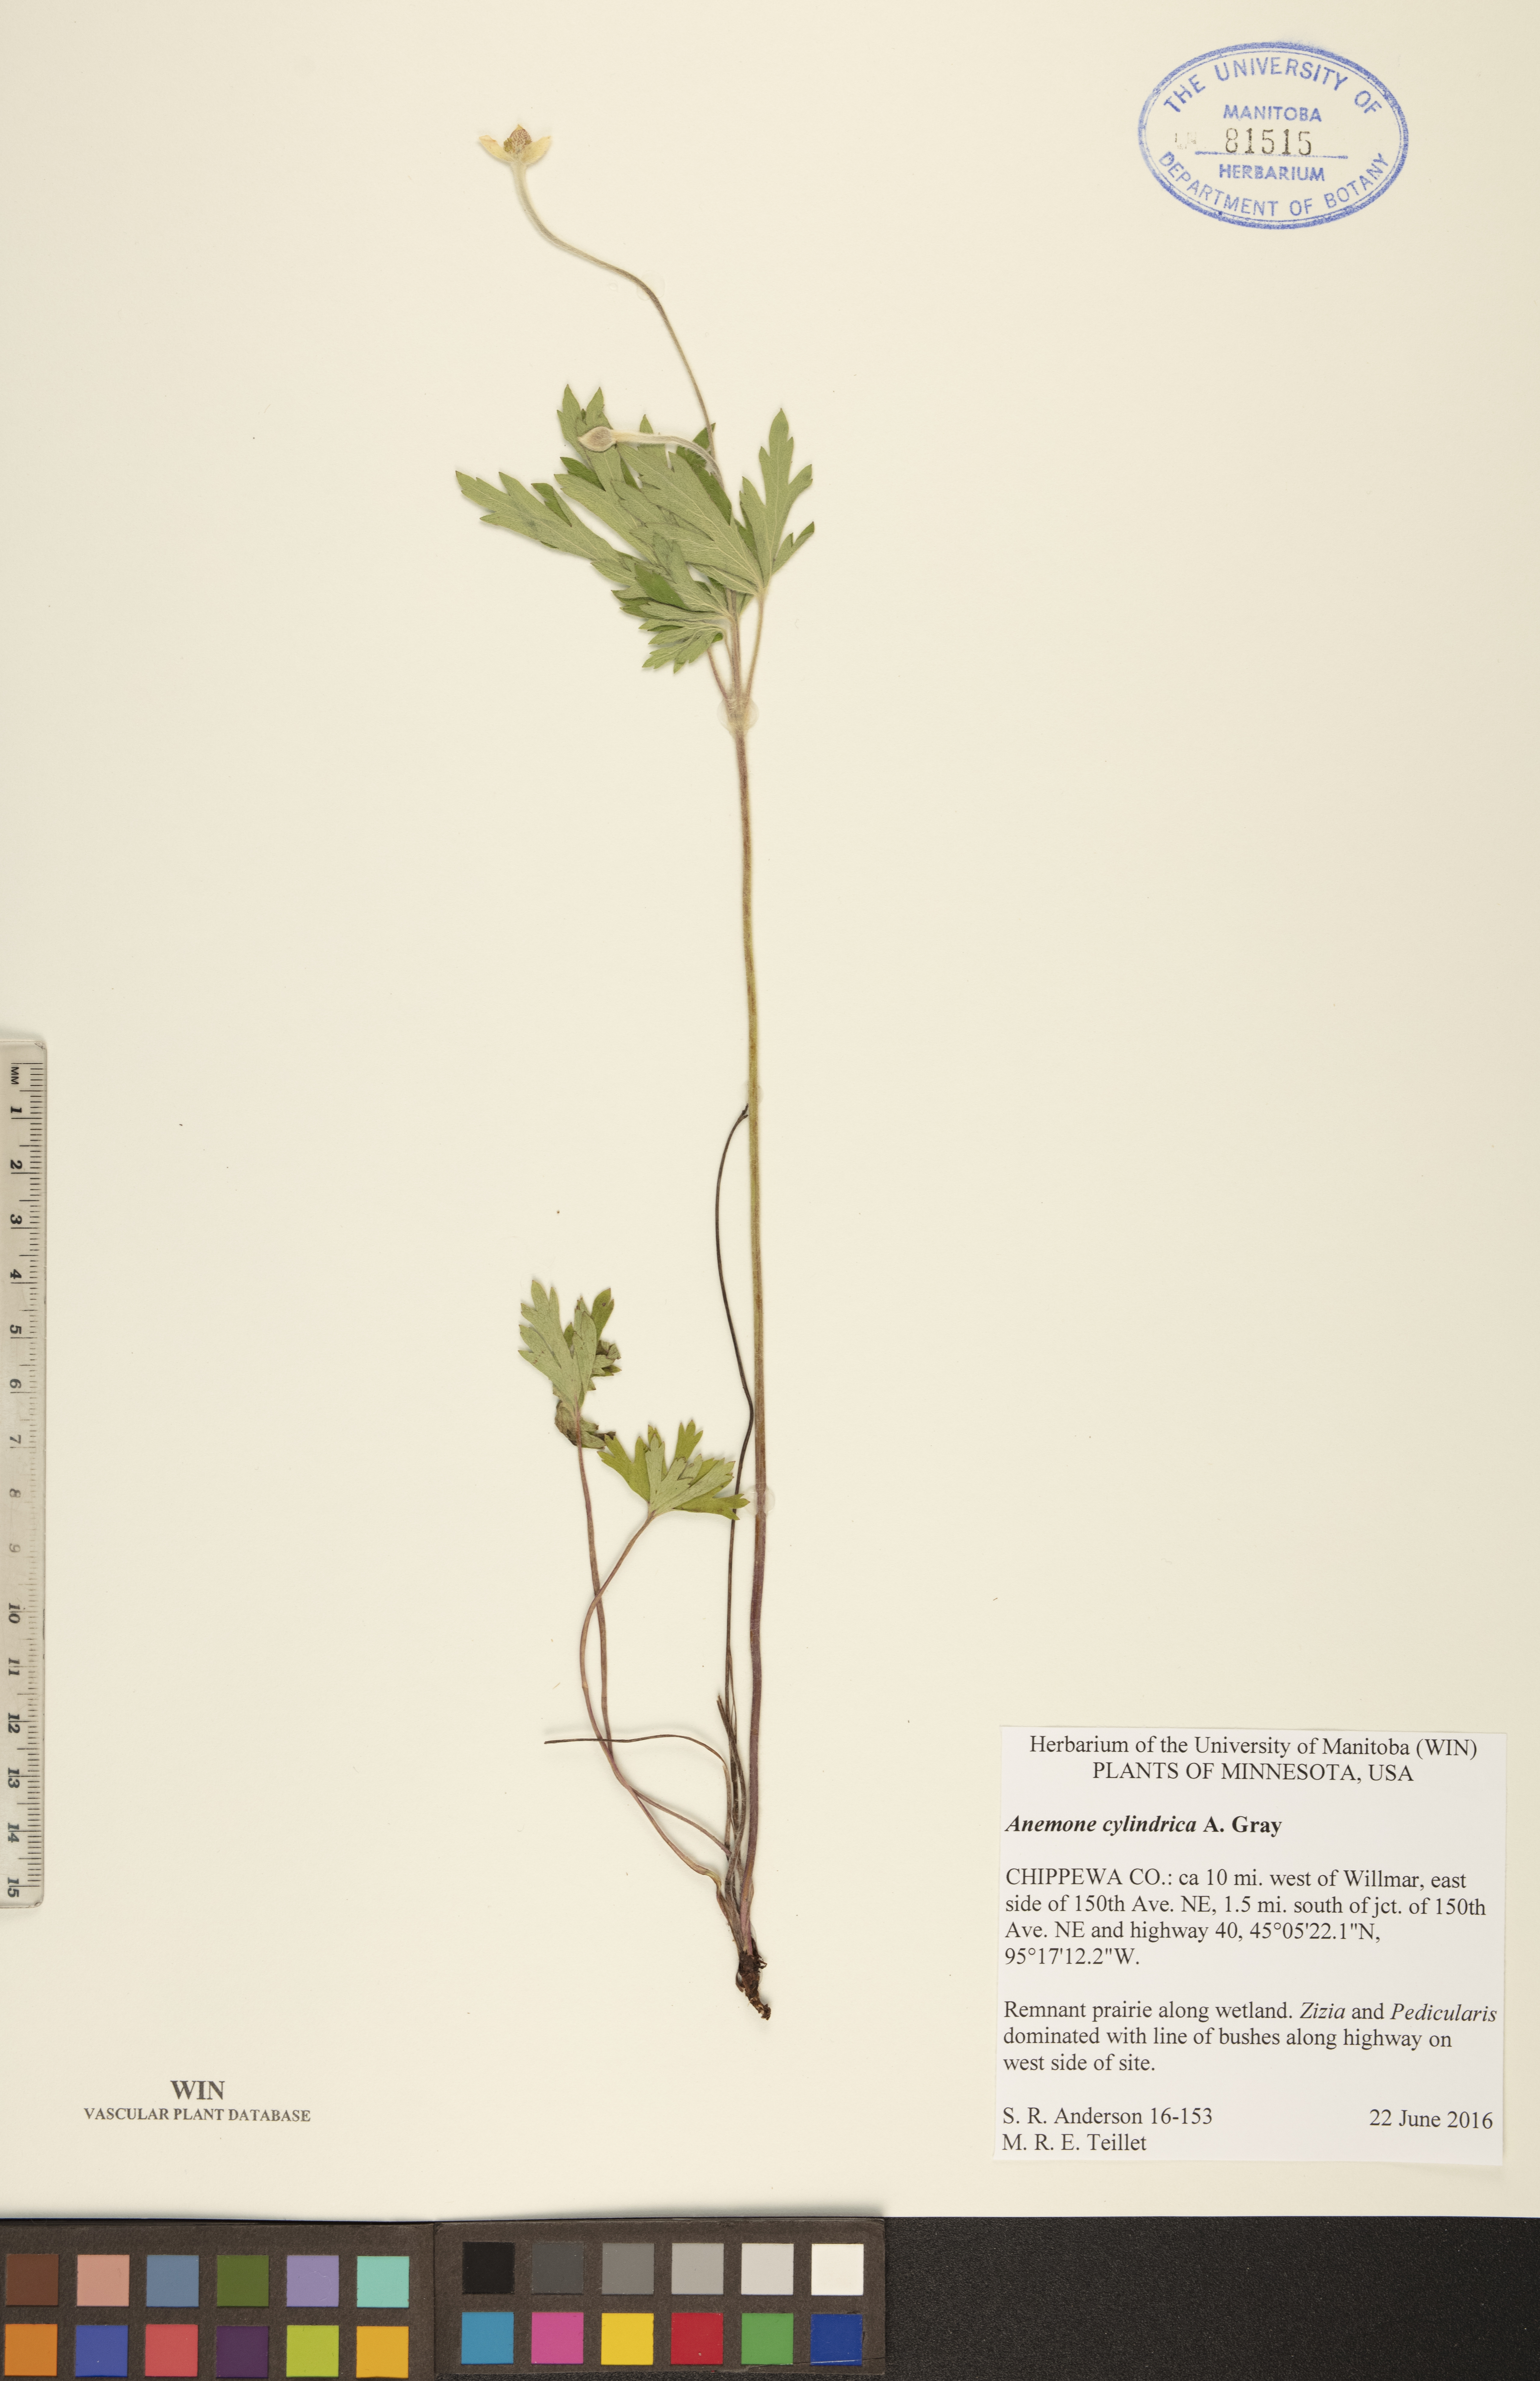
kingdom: Plantae
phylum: Tracheophyta
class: Magnoliopsida
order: Ranunculales
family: Ranunculaceae
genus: Anemone
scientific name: Anemone cylindrica
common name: Candle anemone
